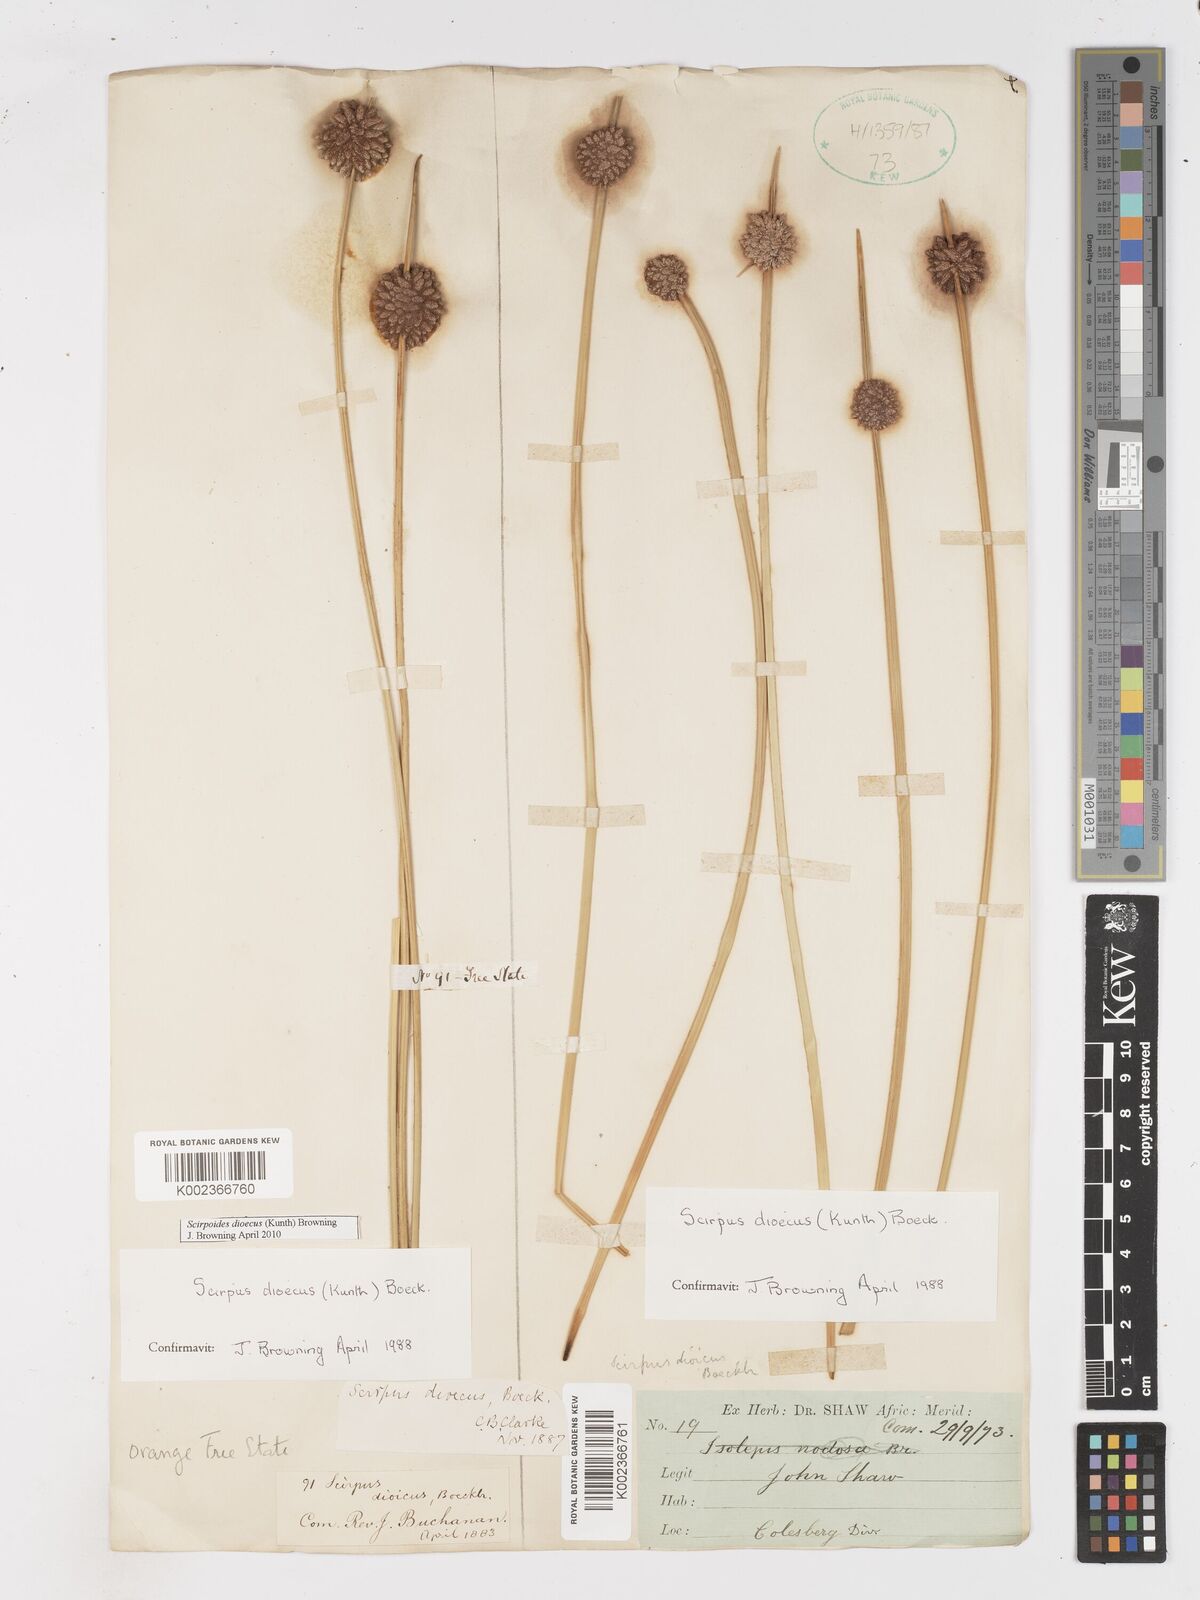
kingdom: Plantae
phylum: Tracheophyta
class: Liliopsida
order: Poales
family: Cyperaceae
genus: Afroscirpoides
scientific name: Afroscirpoides dioeca
